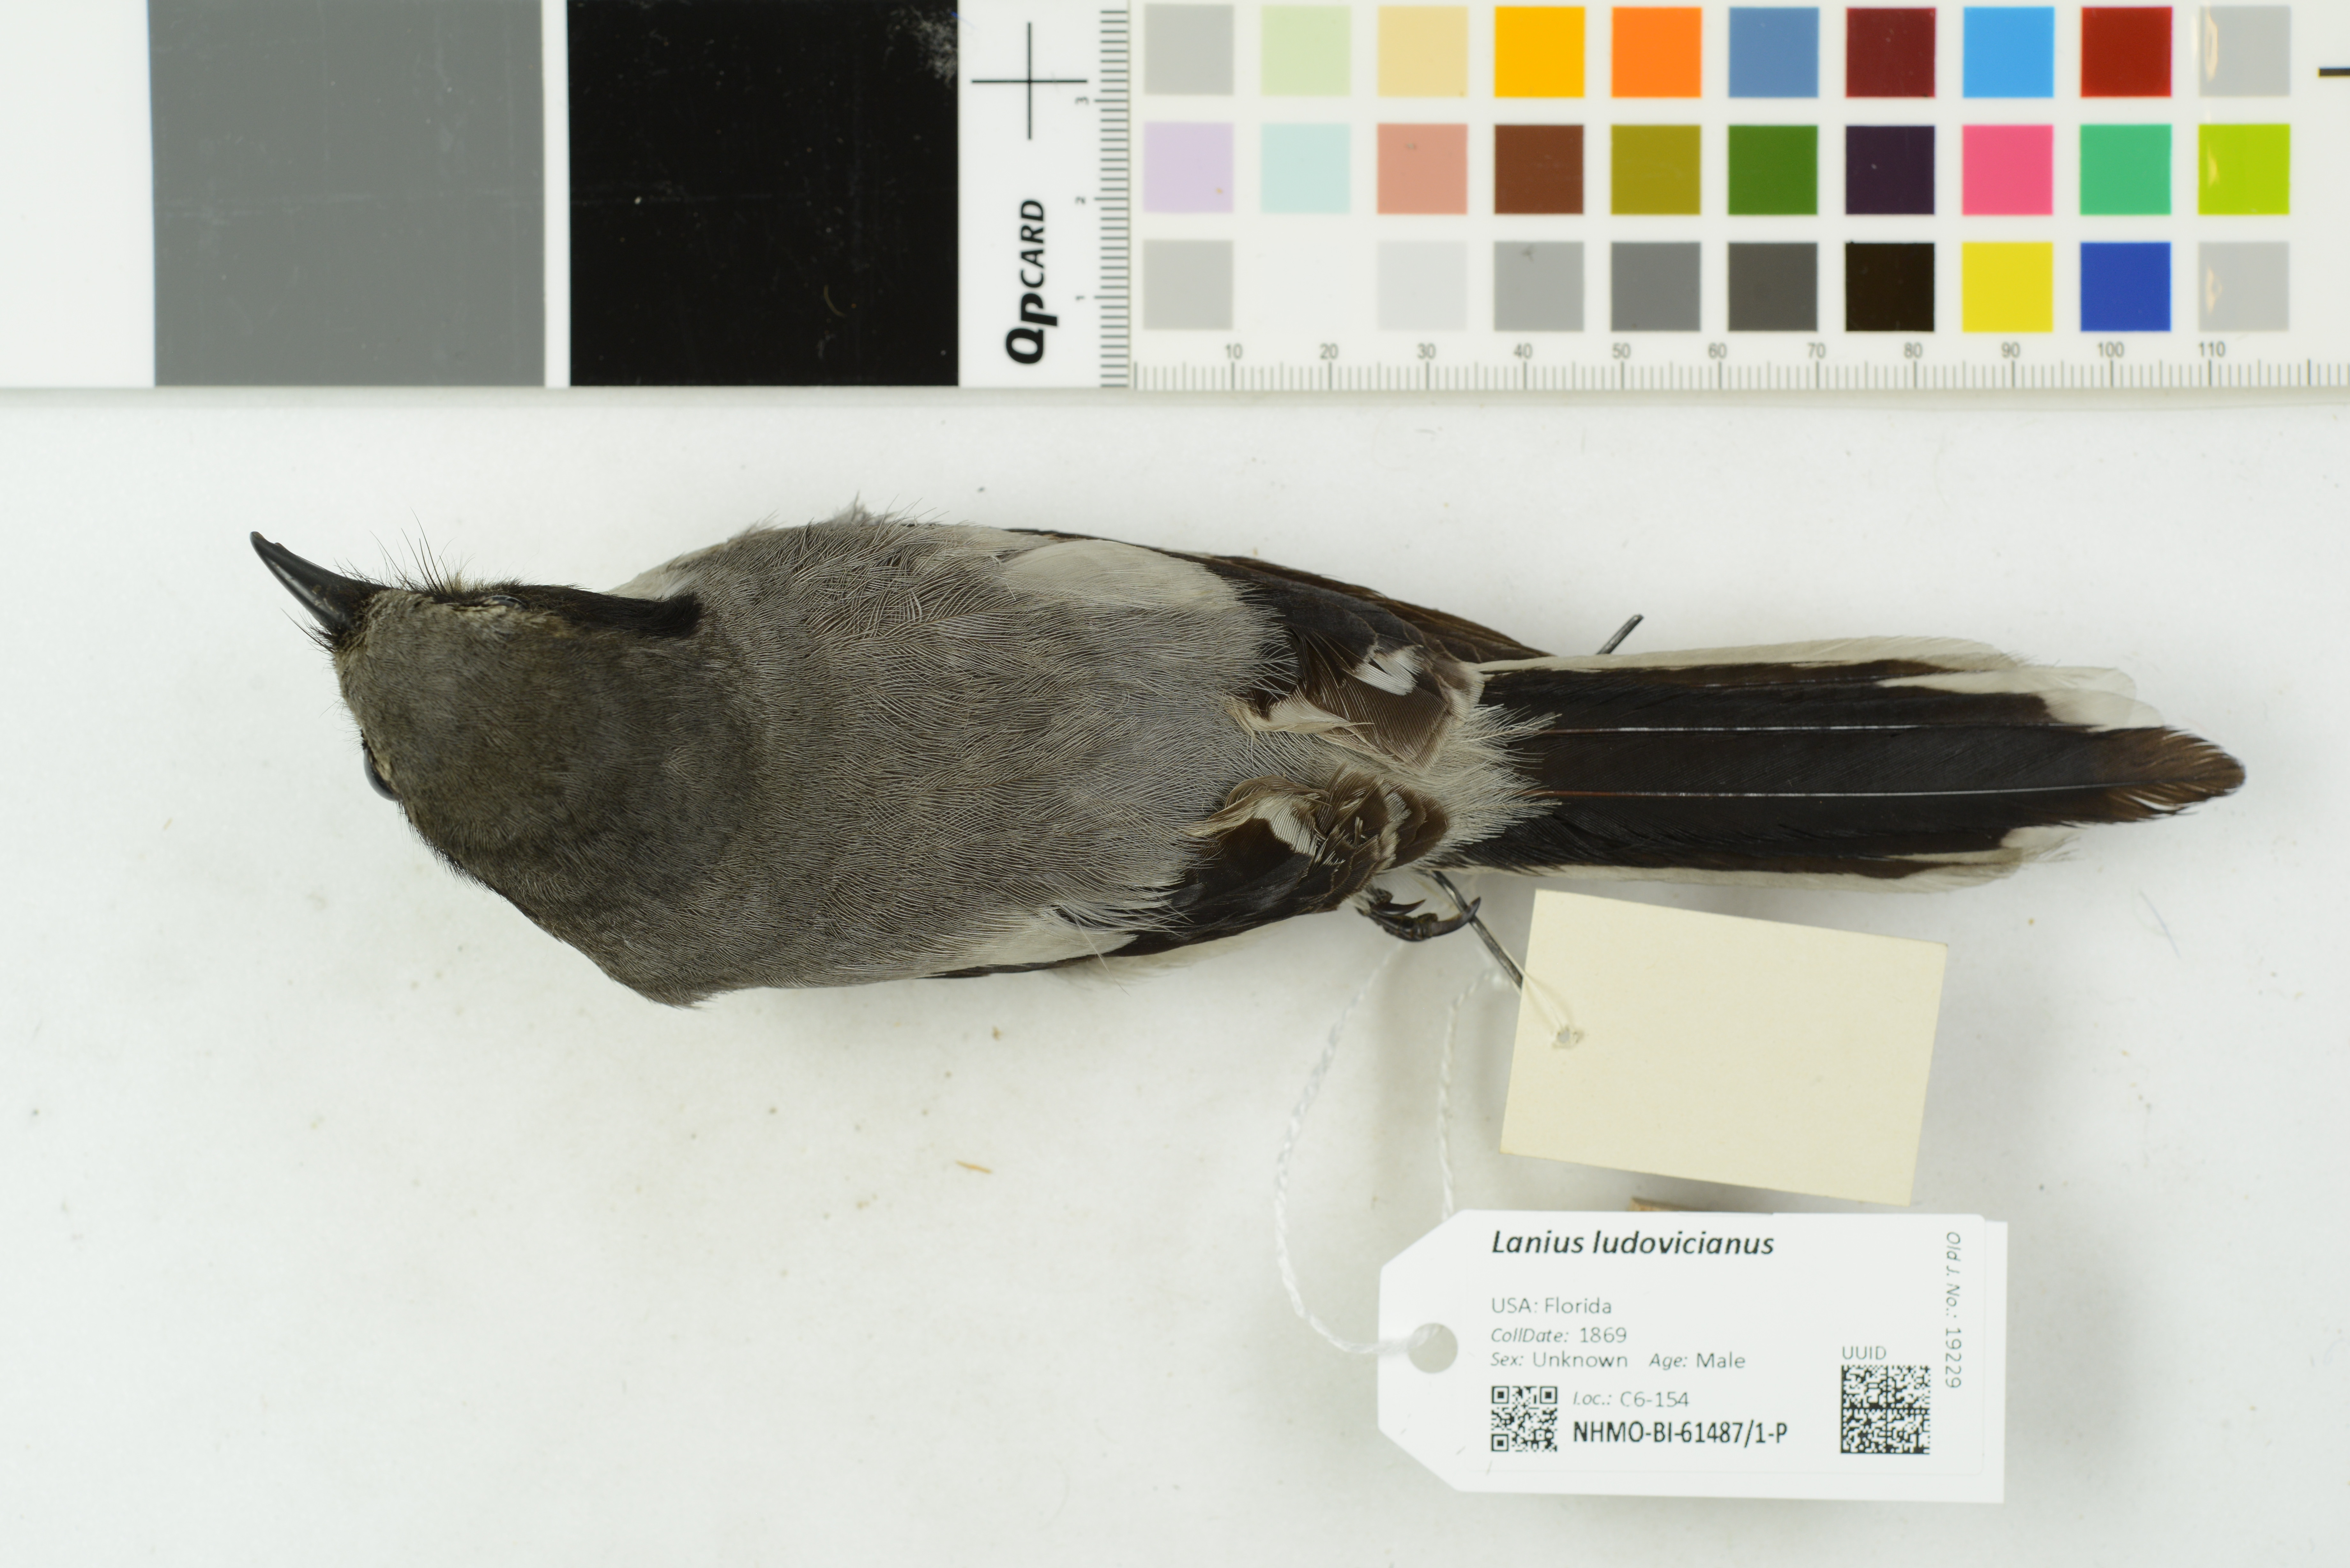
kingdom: Animalia
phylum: Chordata
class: Aves
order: Passeriformes
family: Laniidae
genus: Lanius
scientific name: Lanius ludovicianus
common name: Loggerhead shrike
